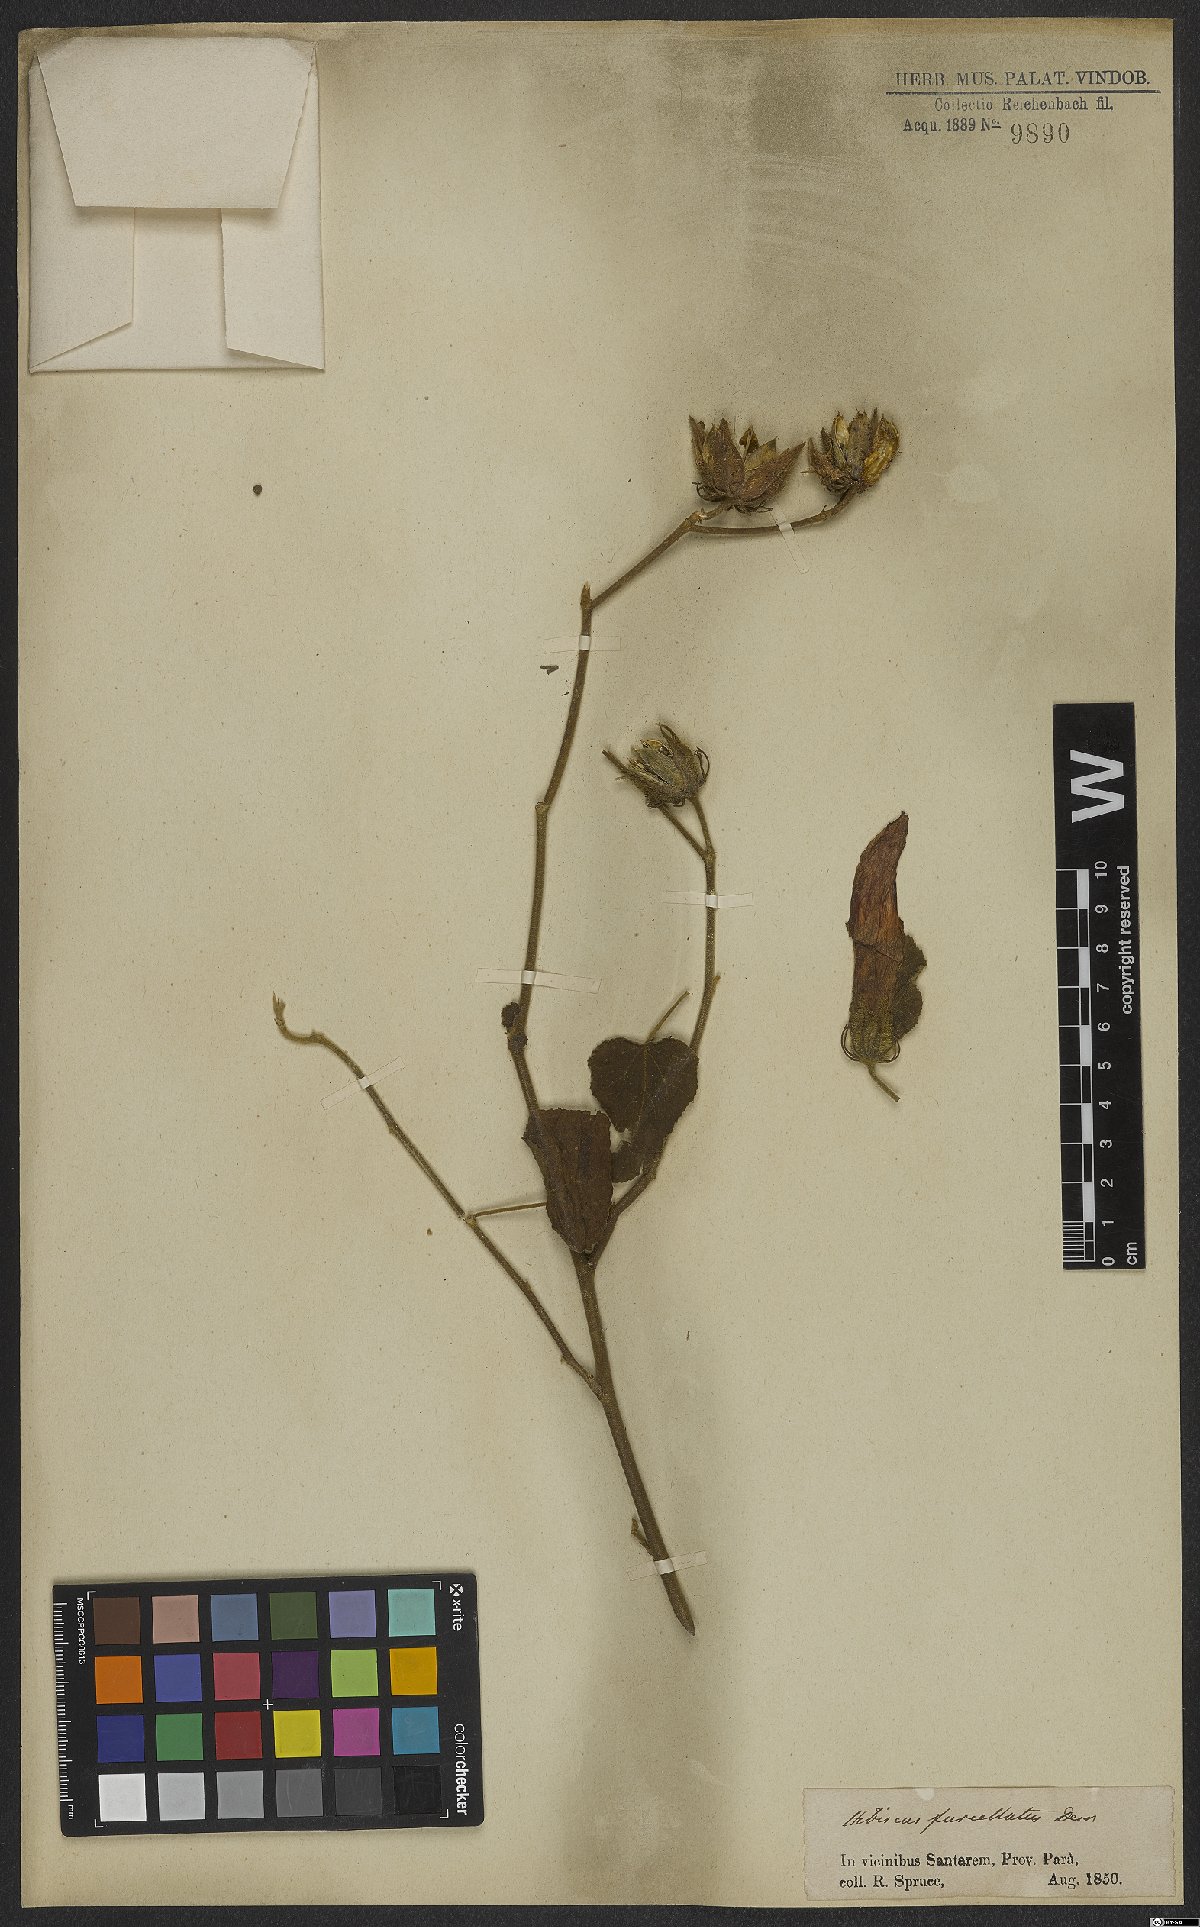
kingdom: Plantae
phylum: Tracheophyta
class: Magnoliopsida
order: Malvales
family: Malvaceae
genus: Hibiscus
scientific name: Hibiscus furcellatus
